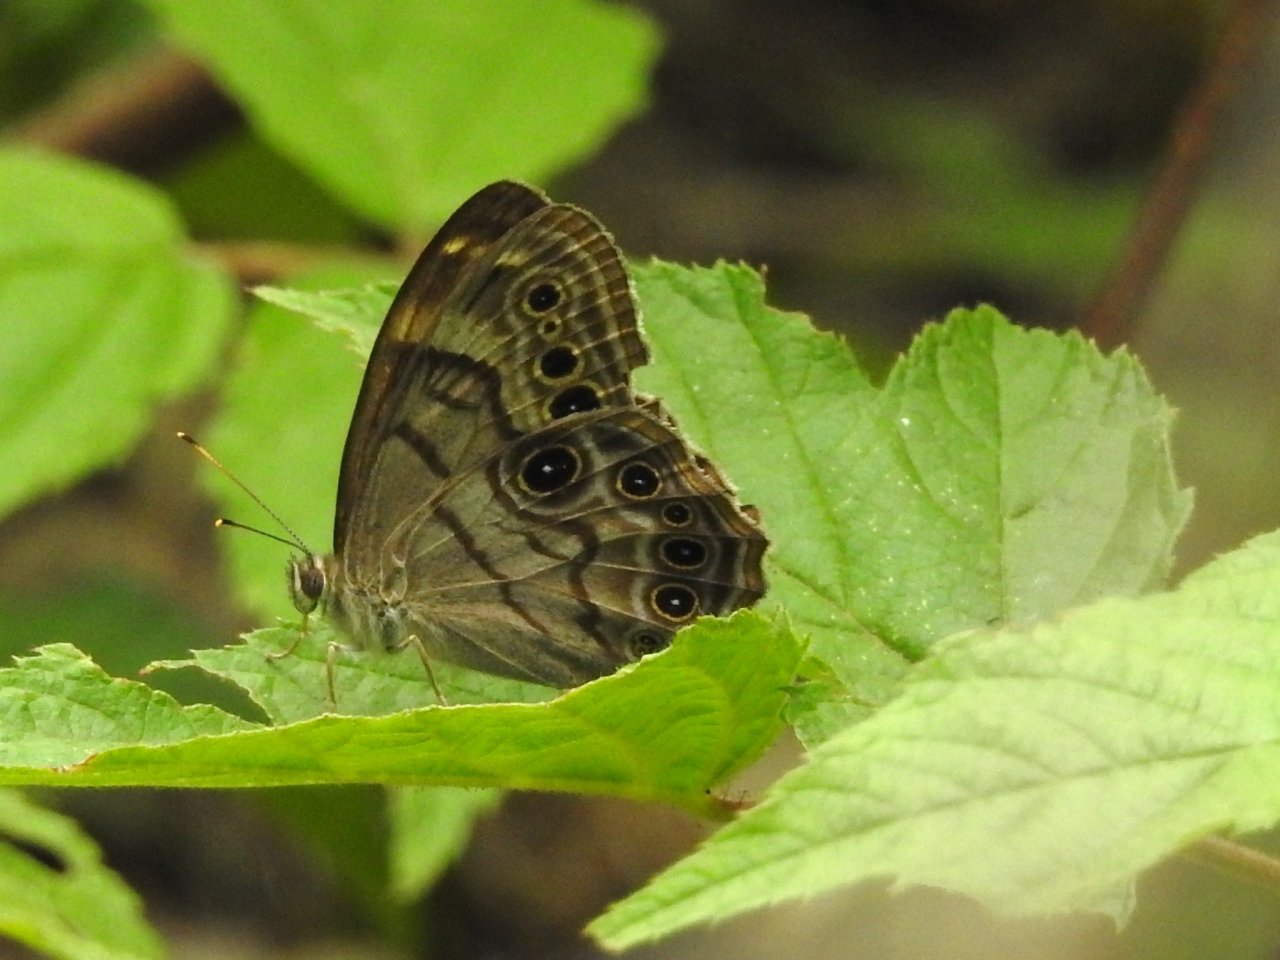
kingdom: Animalia
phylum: Arthropoda
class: Insecta
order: Lepidoptera
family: Nymphalidae
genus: Lethe
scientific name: Lethe anthedon
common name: Northern Pearly-Eye
